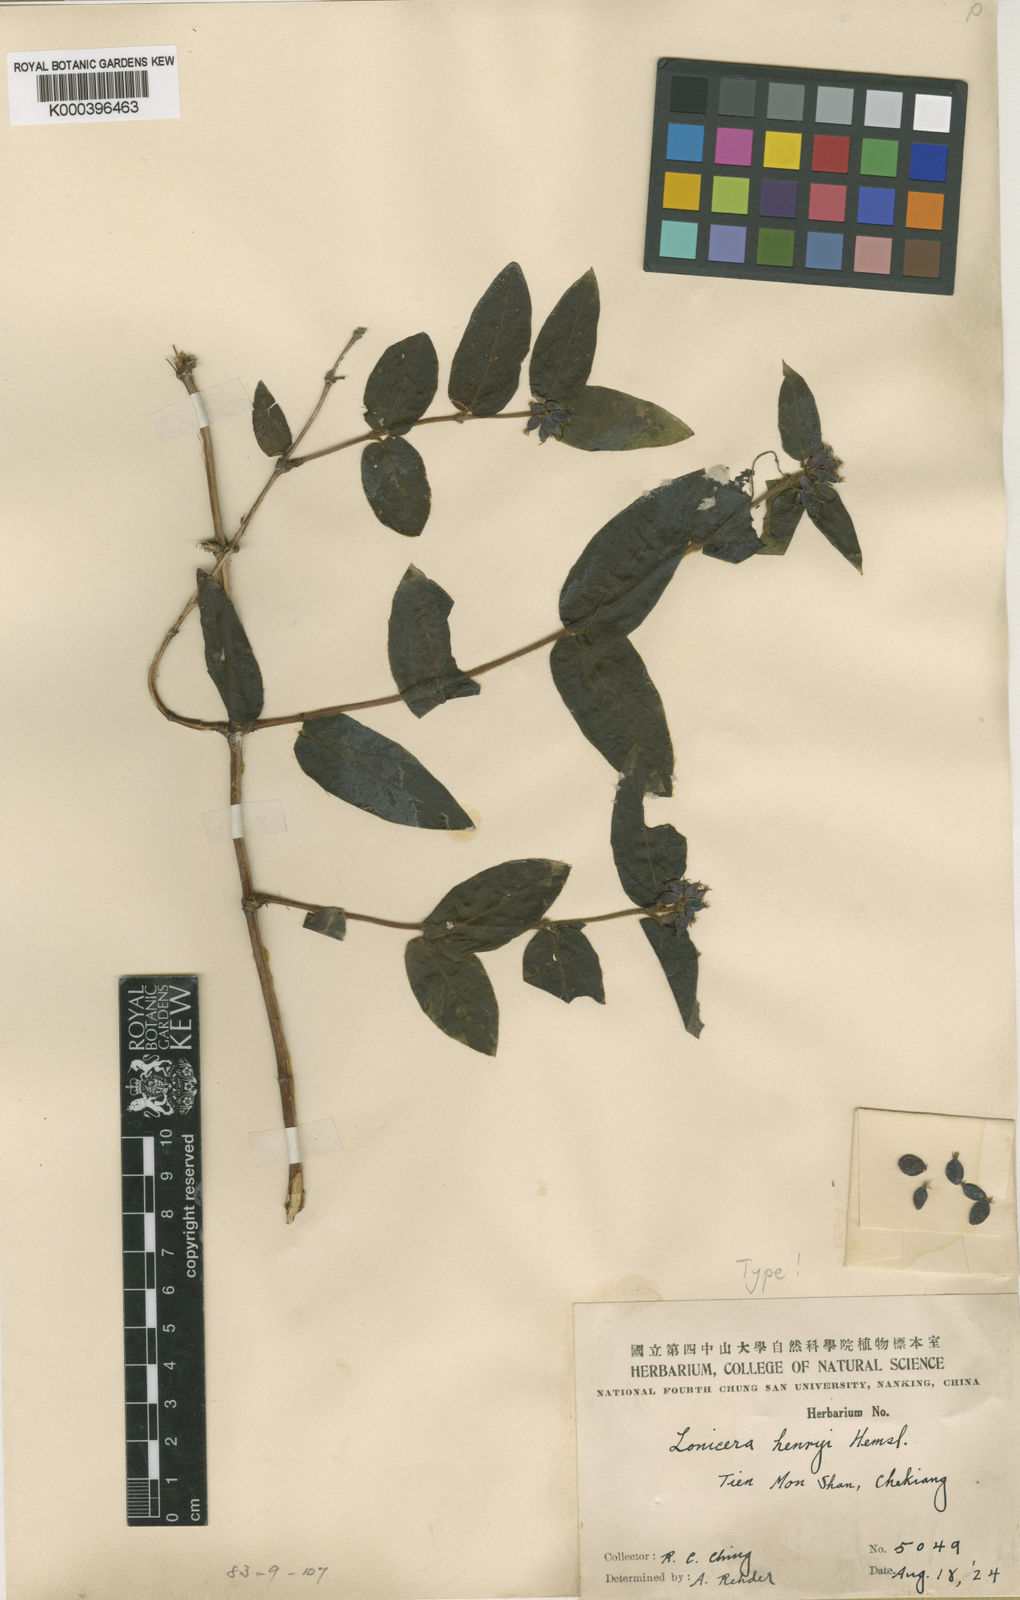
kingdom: Plantae
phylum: Tracheophyta
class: Magnoliopsida
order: Dipsacales
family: Caprifoliaceae
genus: Lonicera
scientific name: Lonicera acuminata
